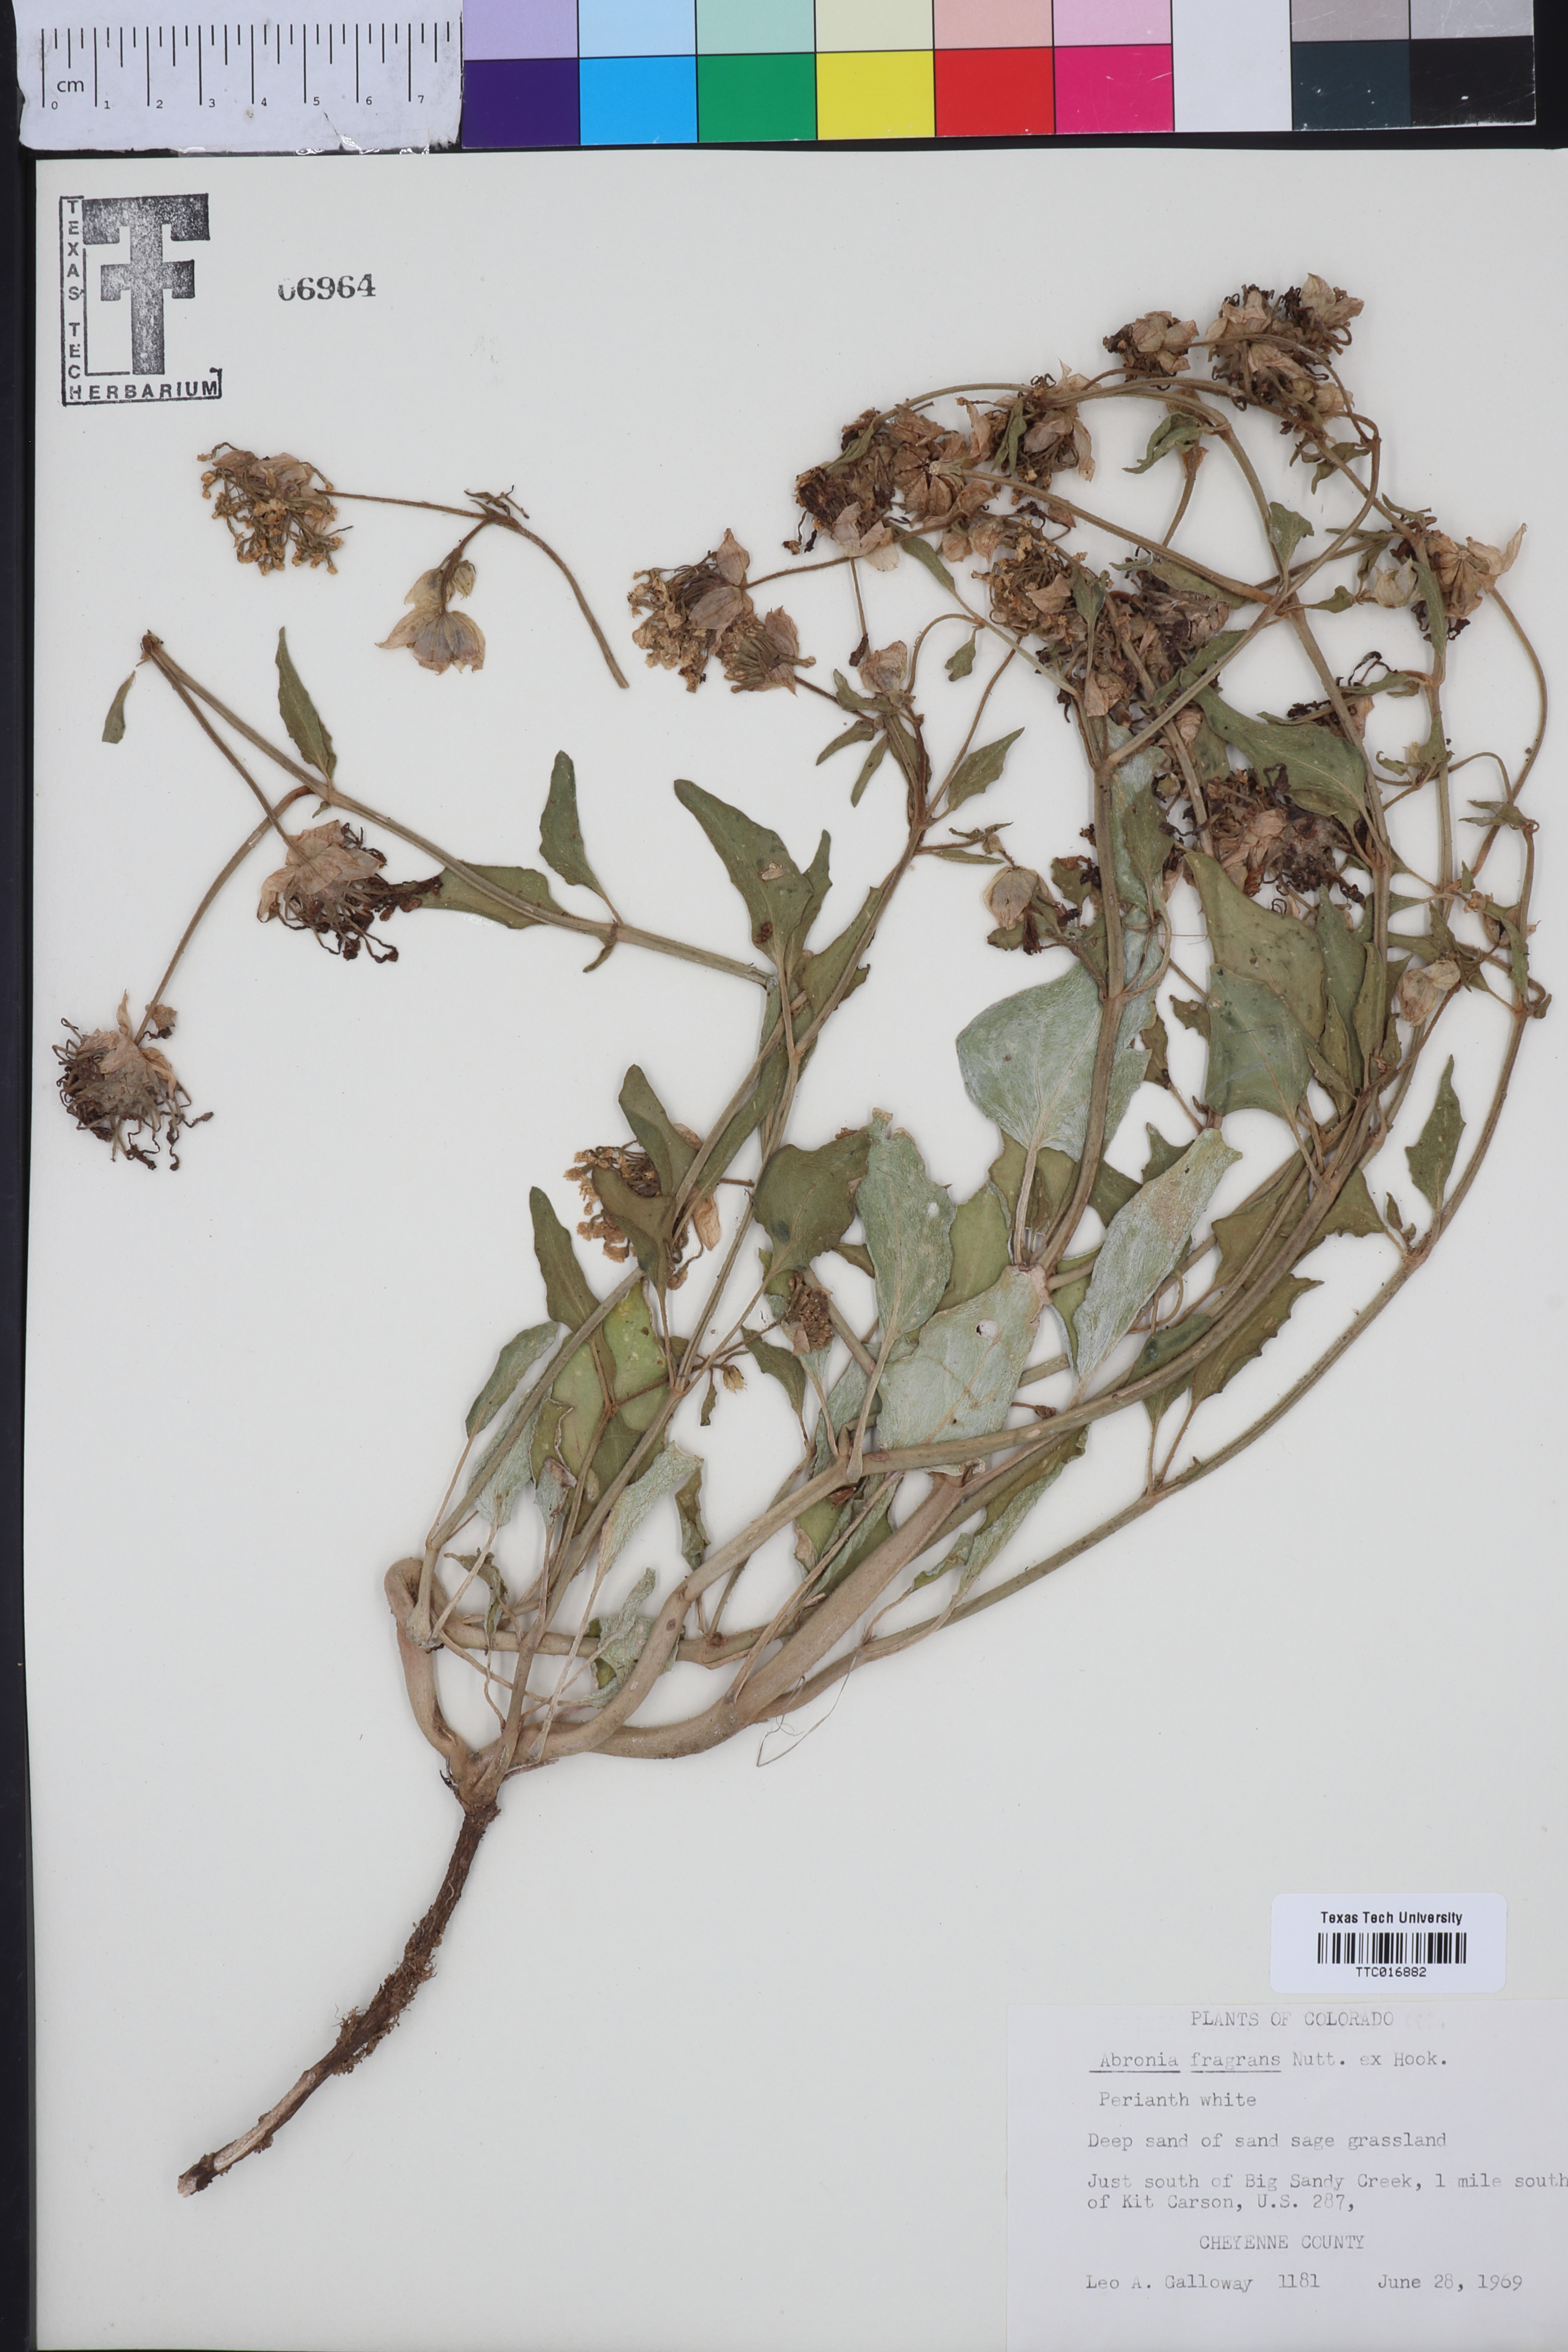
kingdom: Plantae
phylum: Tracheophyta
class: Magnoliopsida
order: Caryophyllales
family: Nyctaginaceae
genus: Abronia
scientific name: Abronia fragrans
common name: Fragrant sand-verbena
